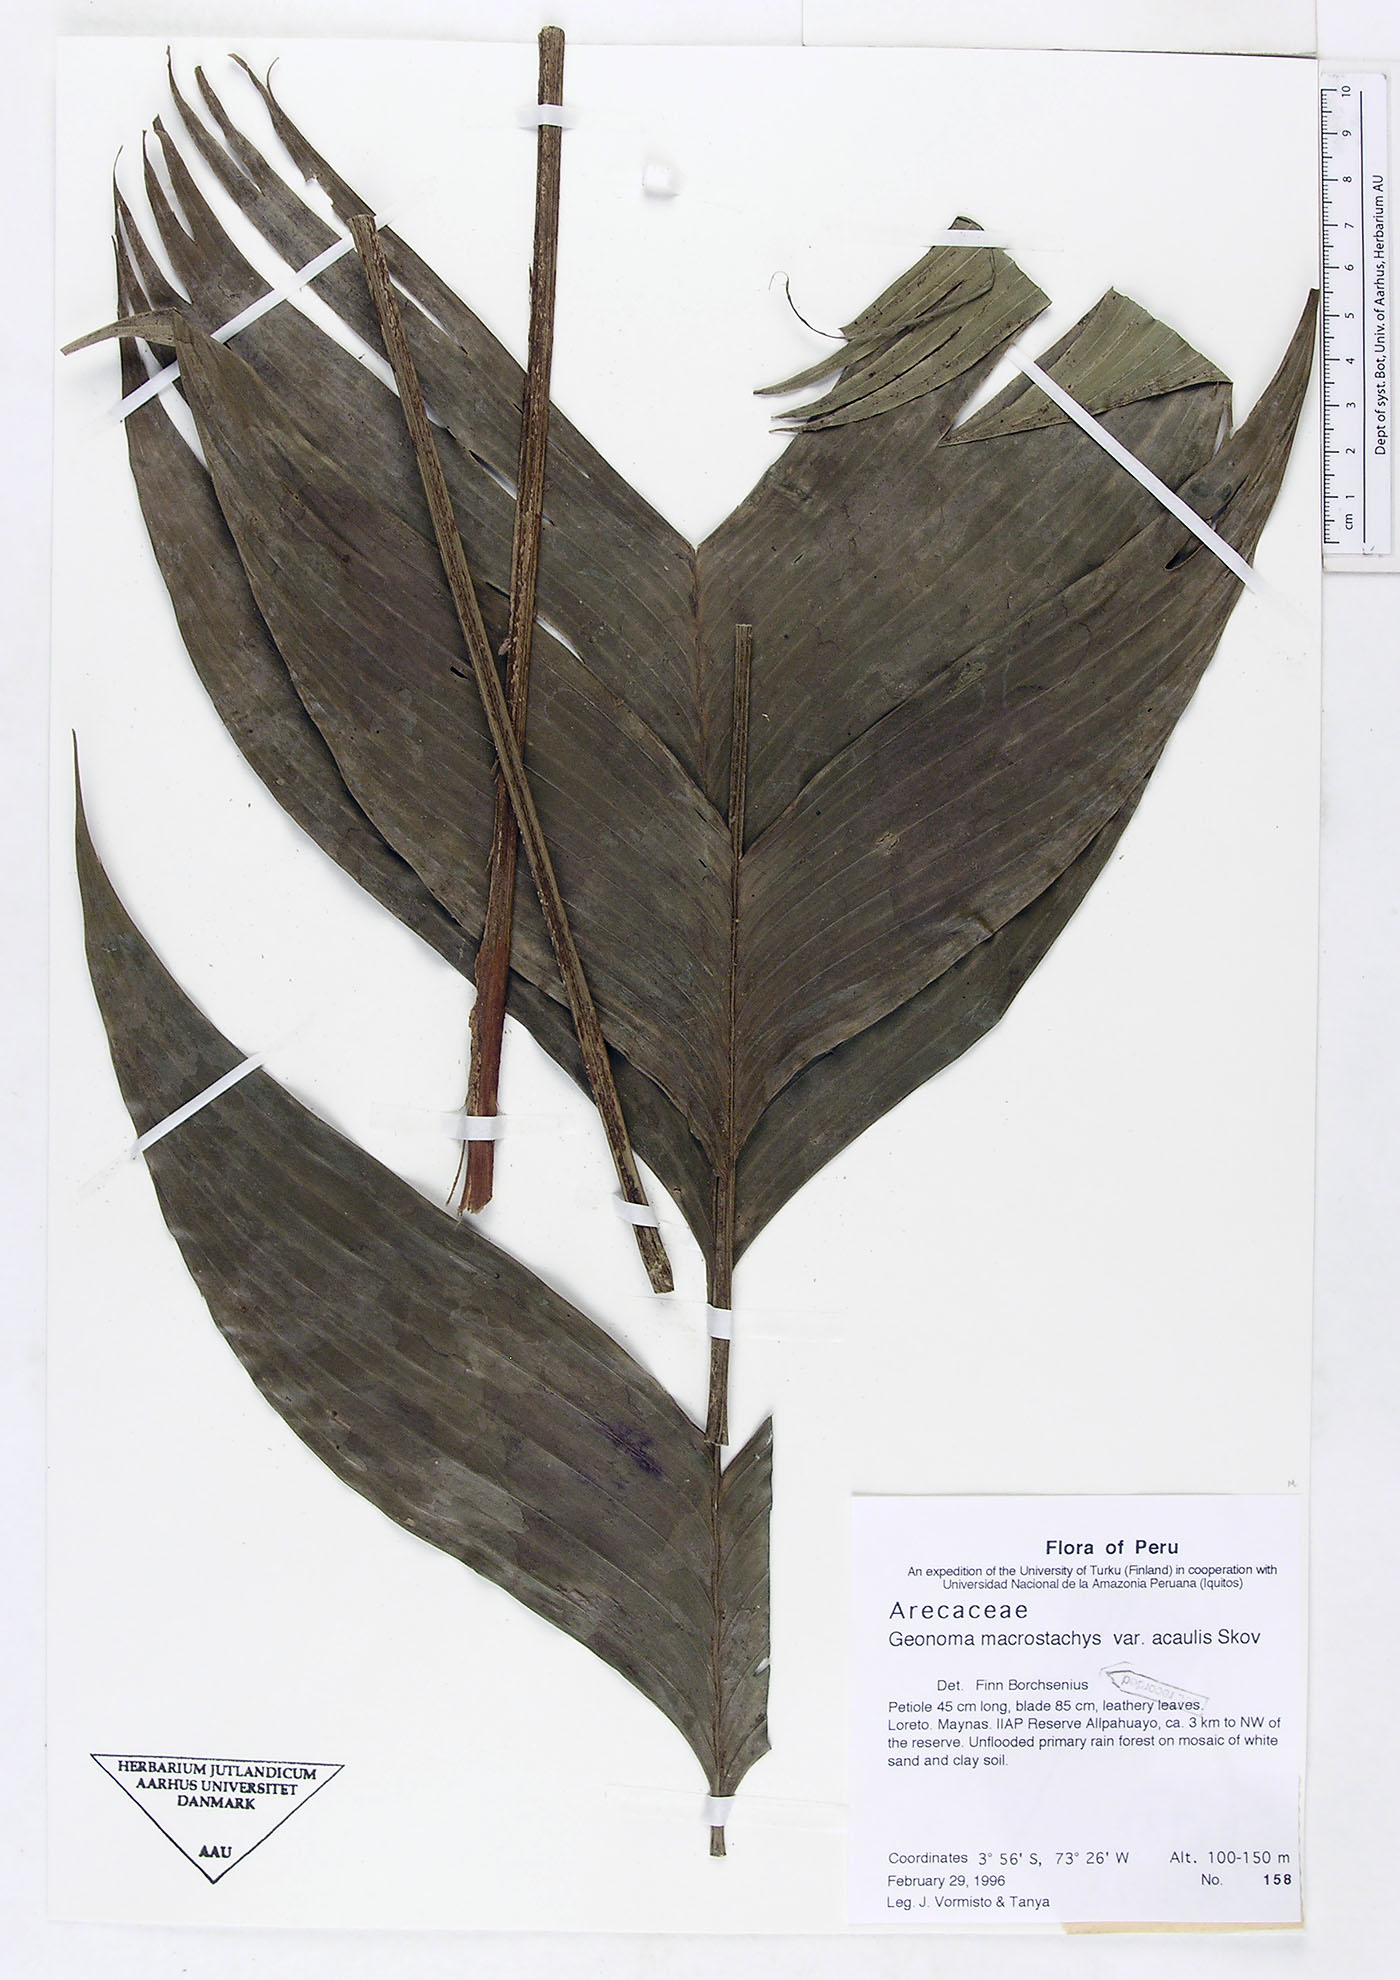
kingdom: Plantae
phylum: Tracheophyta
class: Liliopsida
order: Arecales
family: Arecaceae
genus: Geonoma
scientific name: Geonoma macrostachys
